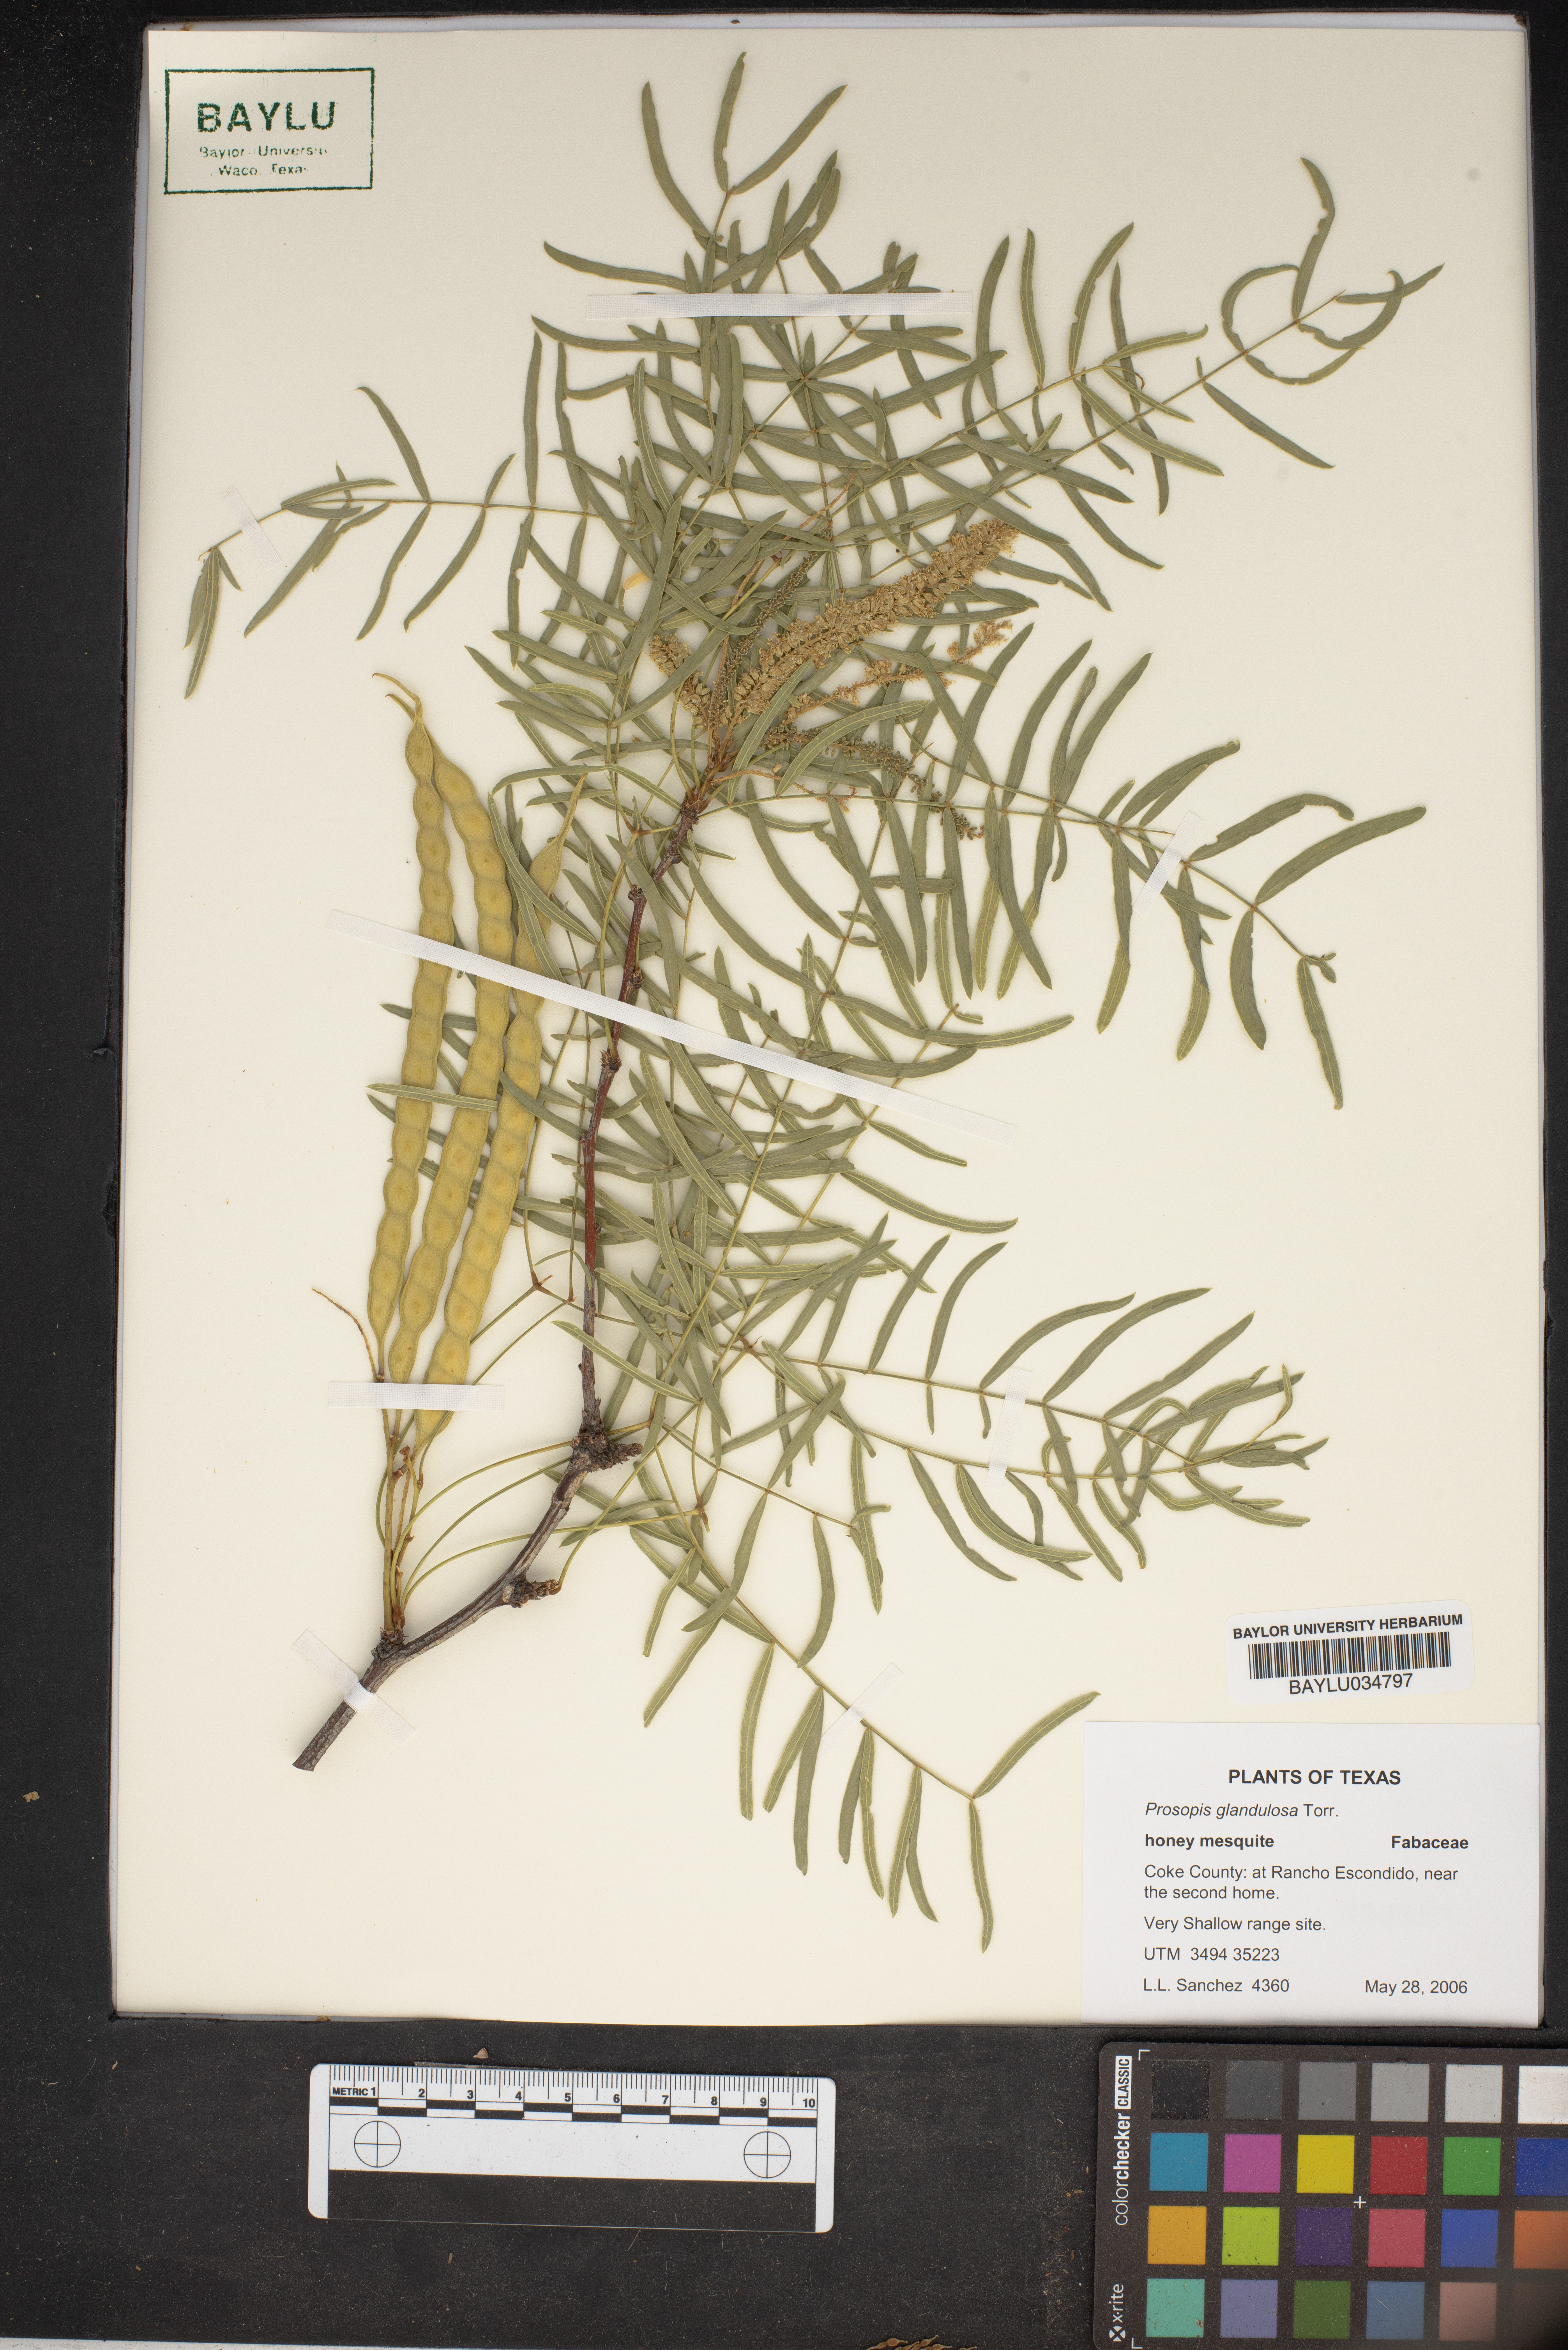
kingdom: Plantae
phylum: Tracheophyta
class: Magnoliopsida
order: Fabales
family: Fabaceae
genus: Prosopis
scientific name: Prosopis glandulosa
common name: Honey mesquite
